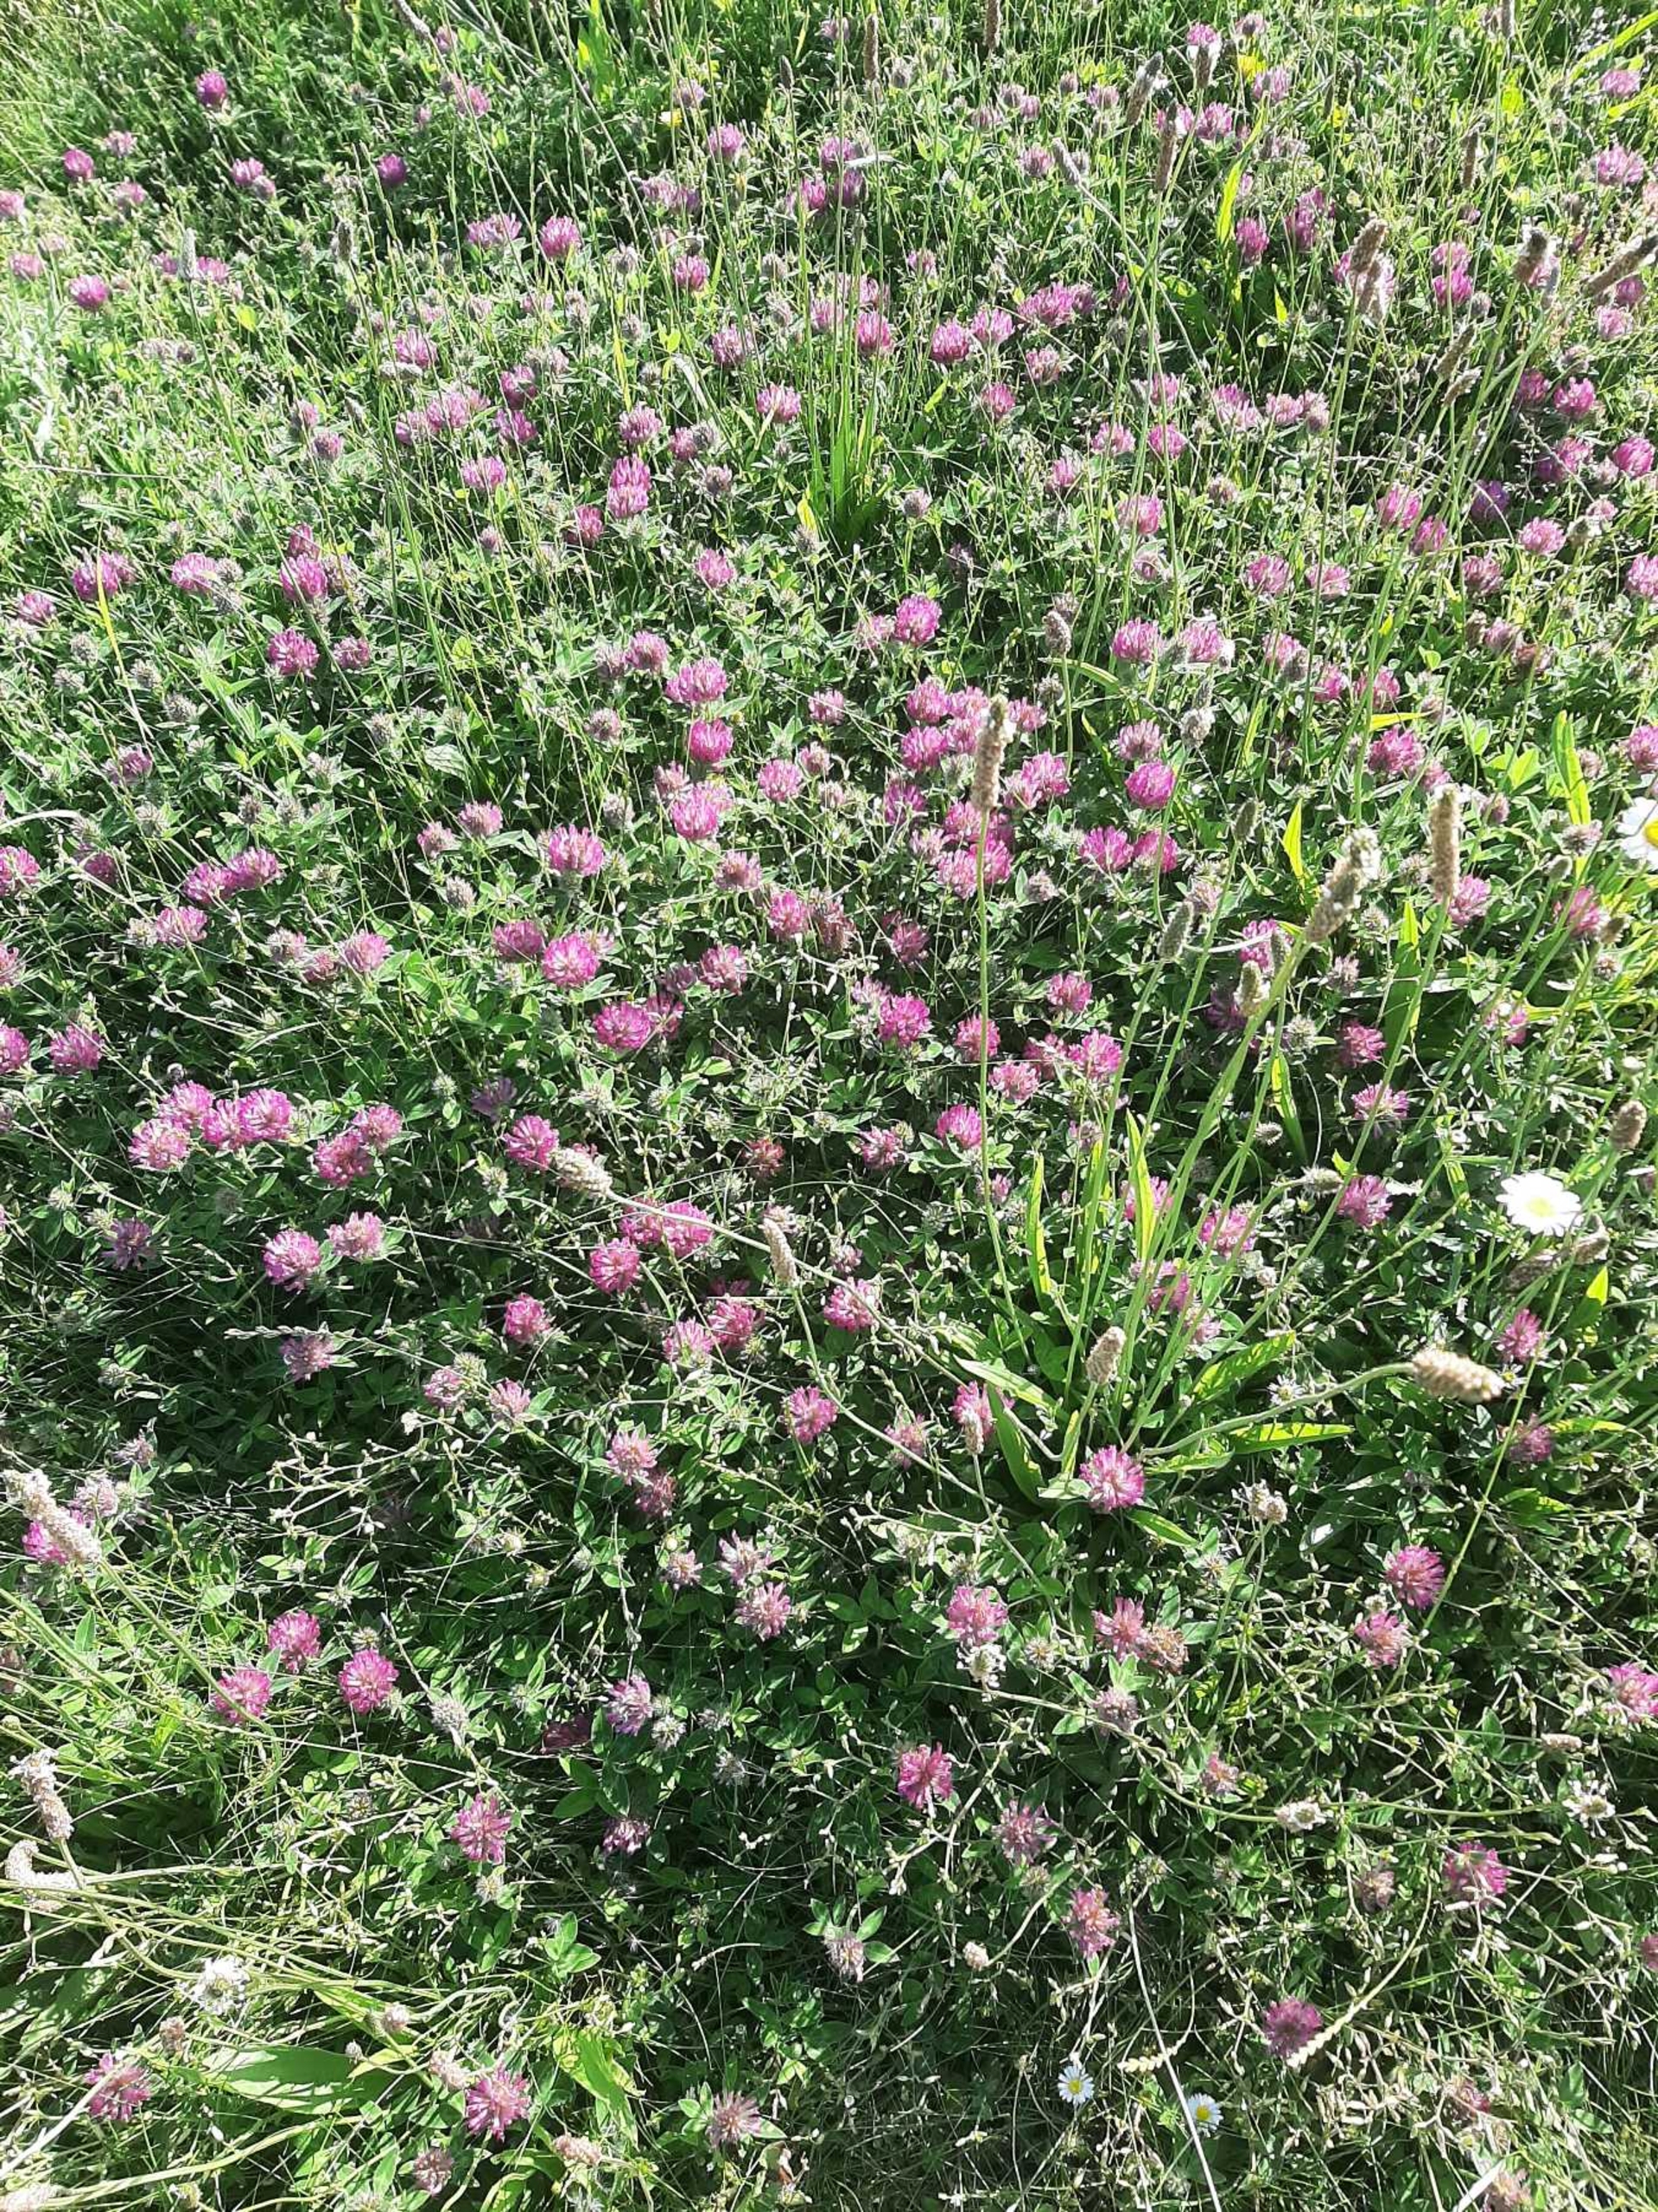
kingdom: Plantae
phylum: Tracheophyta
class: Magnoliopsida
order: Fabales
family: Fabaceae
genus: Trifolium
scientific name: Trifolium pratense
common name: Rød-kløver
